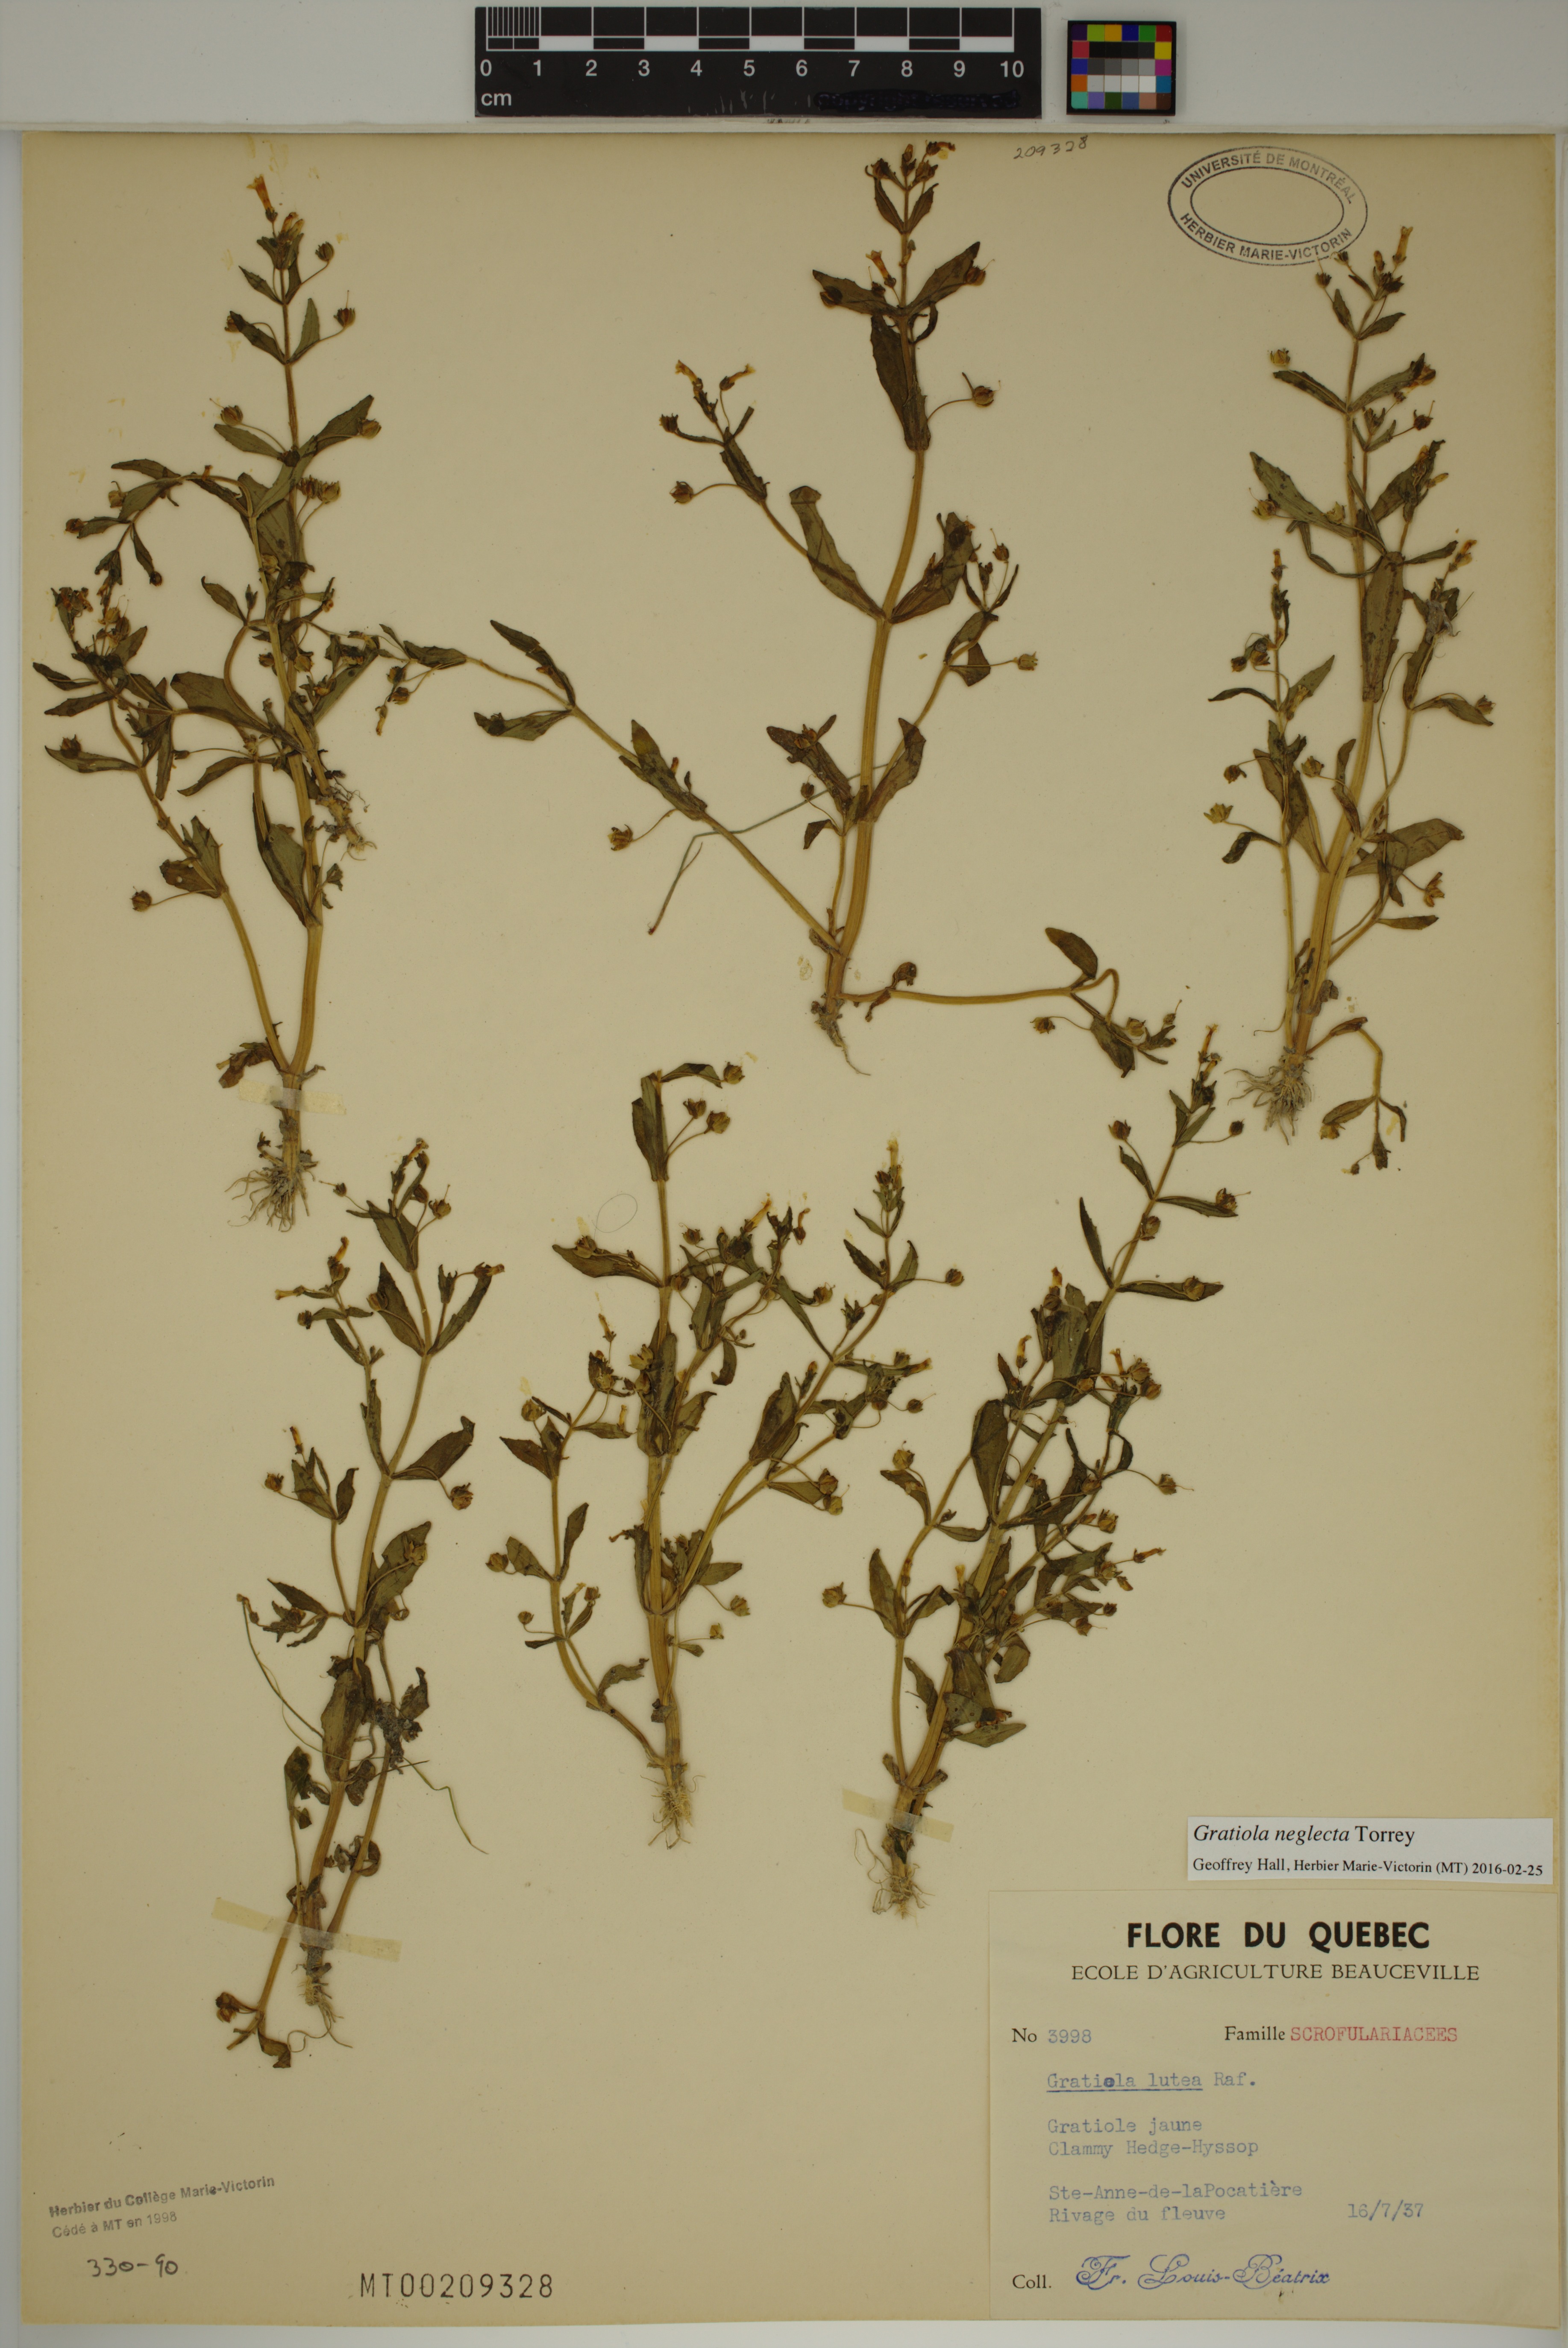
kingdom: Plantae
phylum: Tracheophyta
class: Magnoliopsida
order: Lamiales
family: Plantaginaceae
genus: Gratiola
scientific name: Gratiola neglecta
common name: American hedge-hyssop
